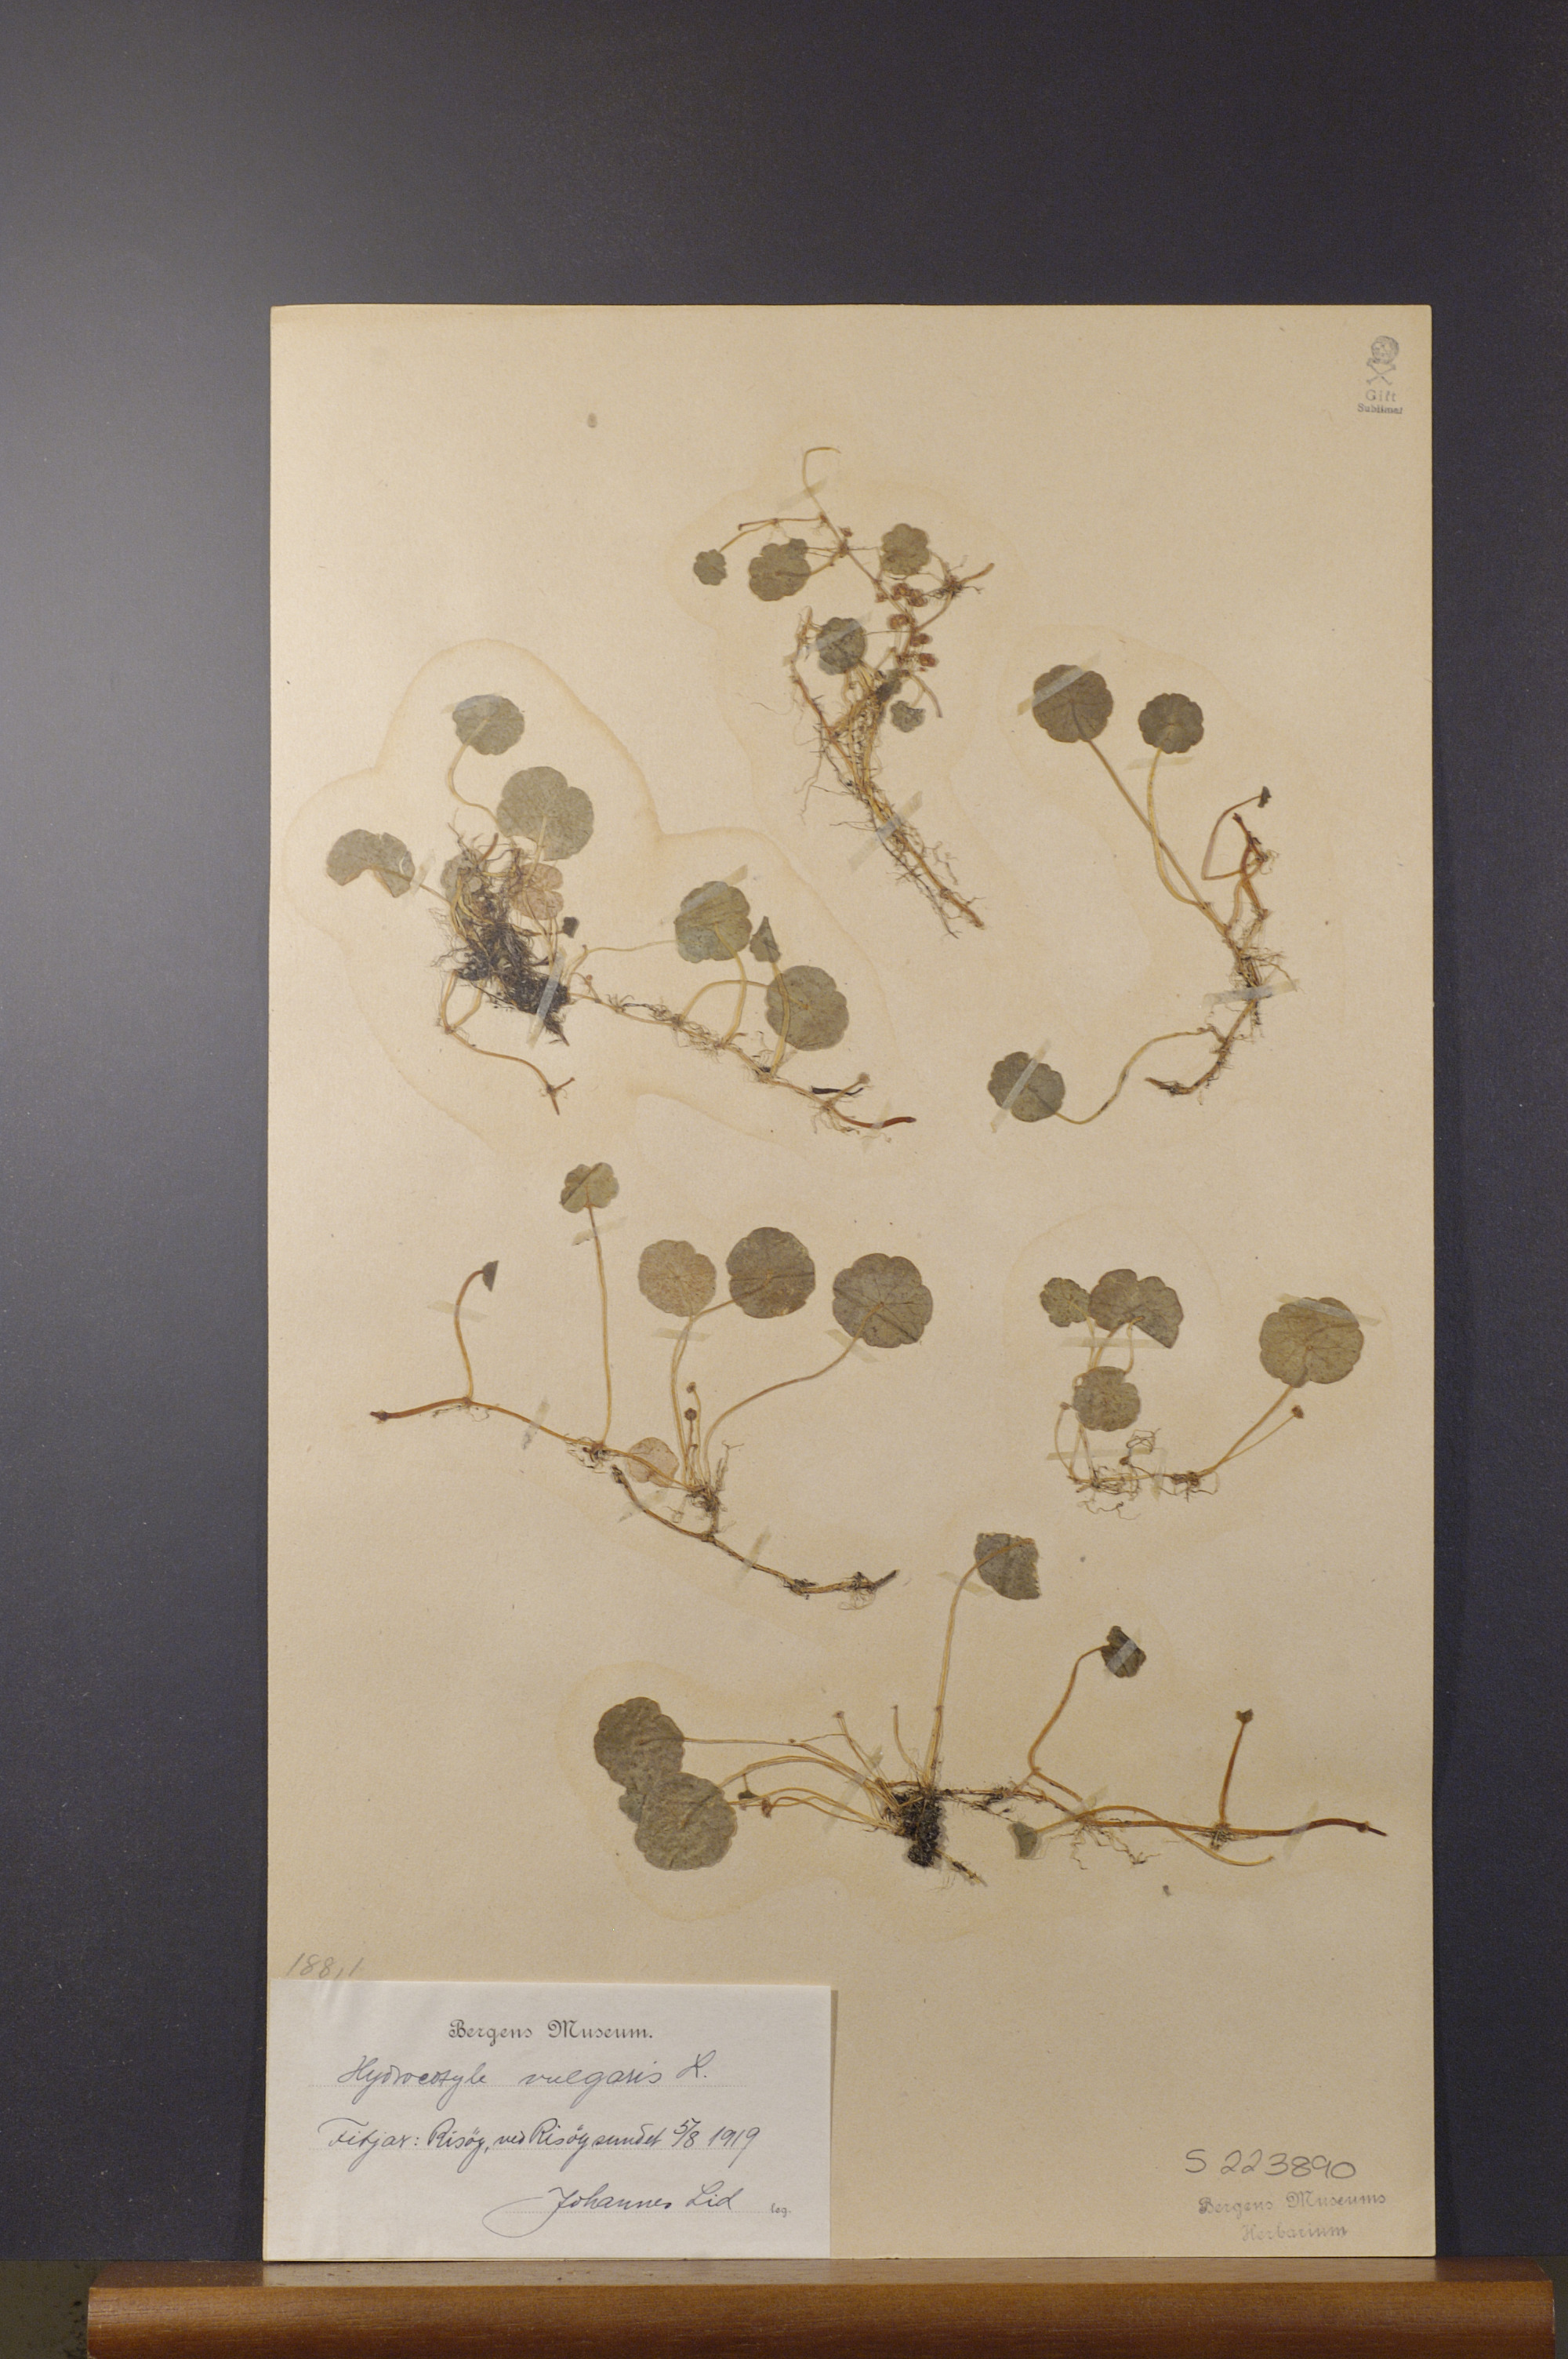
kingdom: Plantae
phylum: Tracheophyta
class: Magnoliopsida
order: Apiales
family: Araliaceae
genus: Hydrocotyle
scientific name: Hydrocotyle vulgaris
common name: Marsh pennywort
